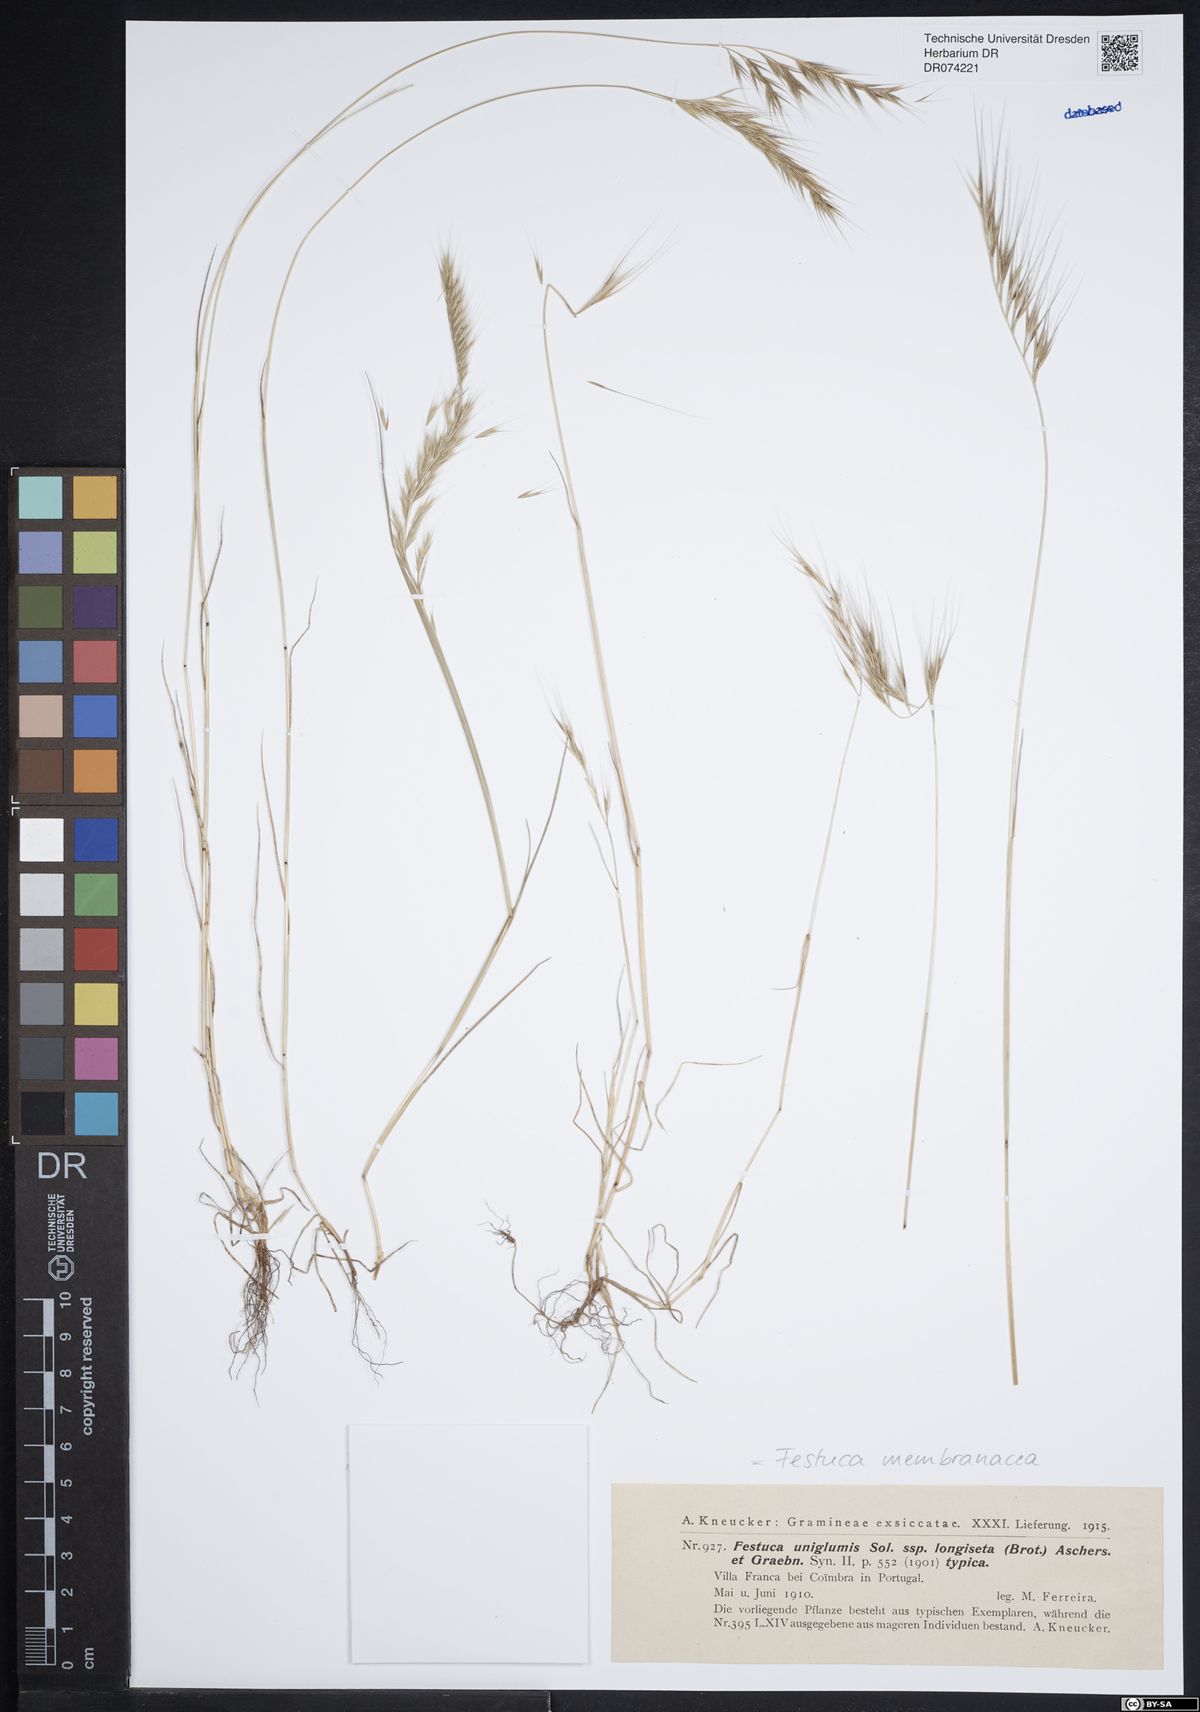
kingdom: Plantae
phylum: Tracheophyta
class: Liliopsida
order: Poales
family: Poaceae
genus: Festuca
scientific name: Festuca membranacea
